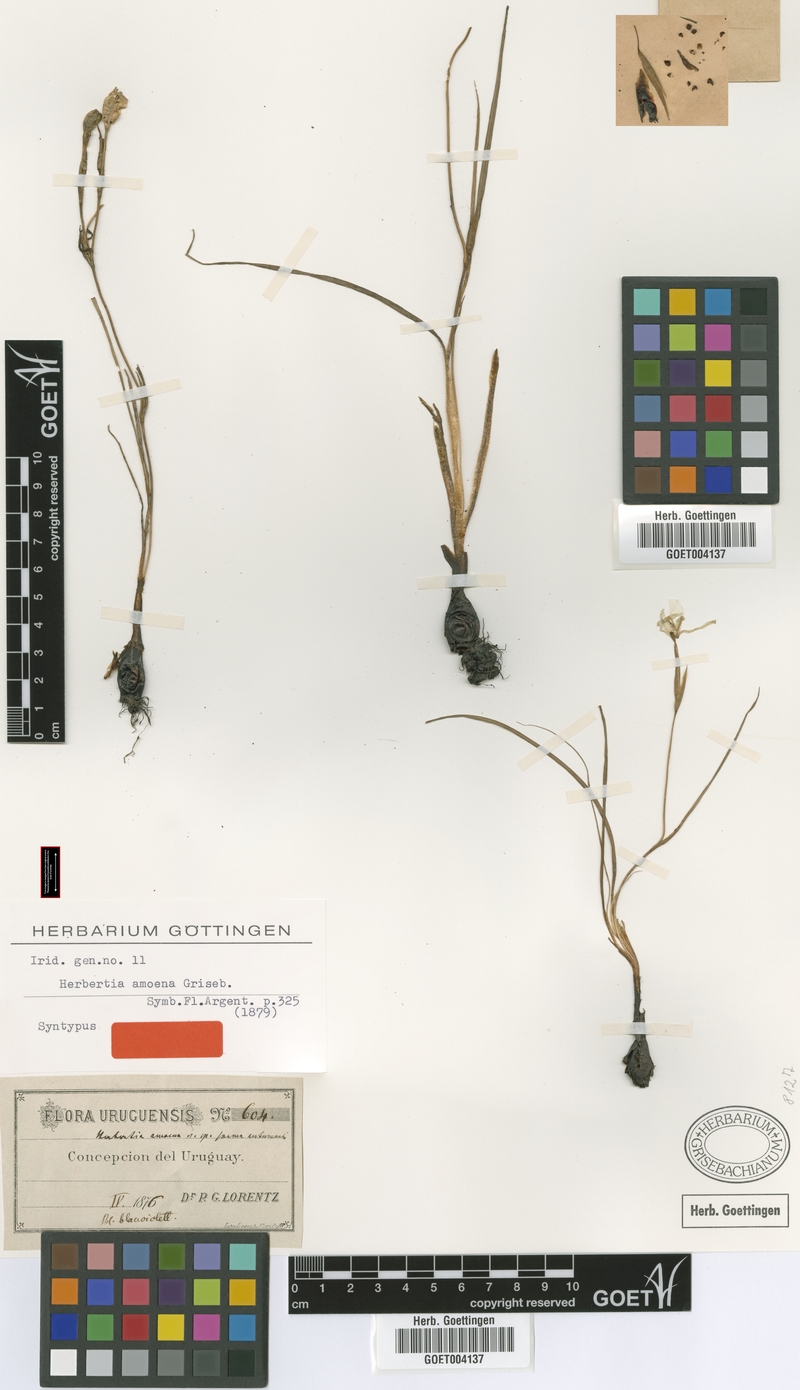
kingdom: Plantae
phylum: Tracheophyta
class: Liliopsida
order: Asparagales
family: Iridaceae
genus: Herbertia
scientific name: Herbertia lahue
